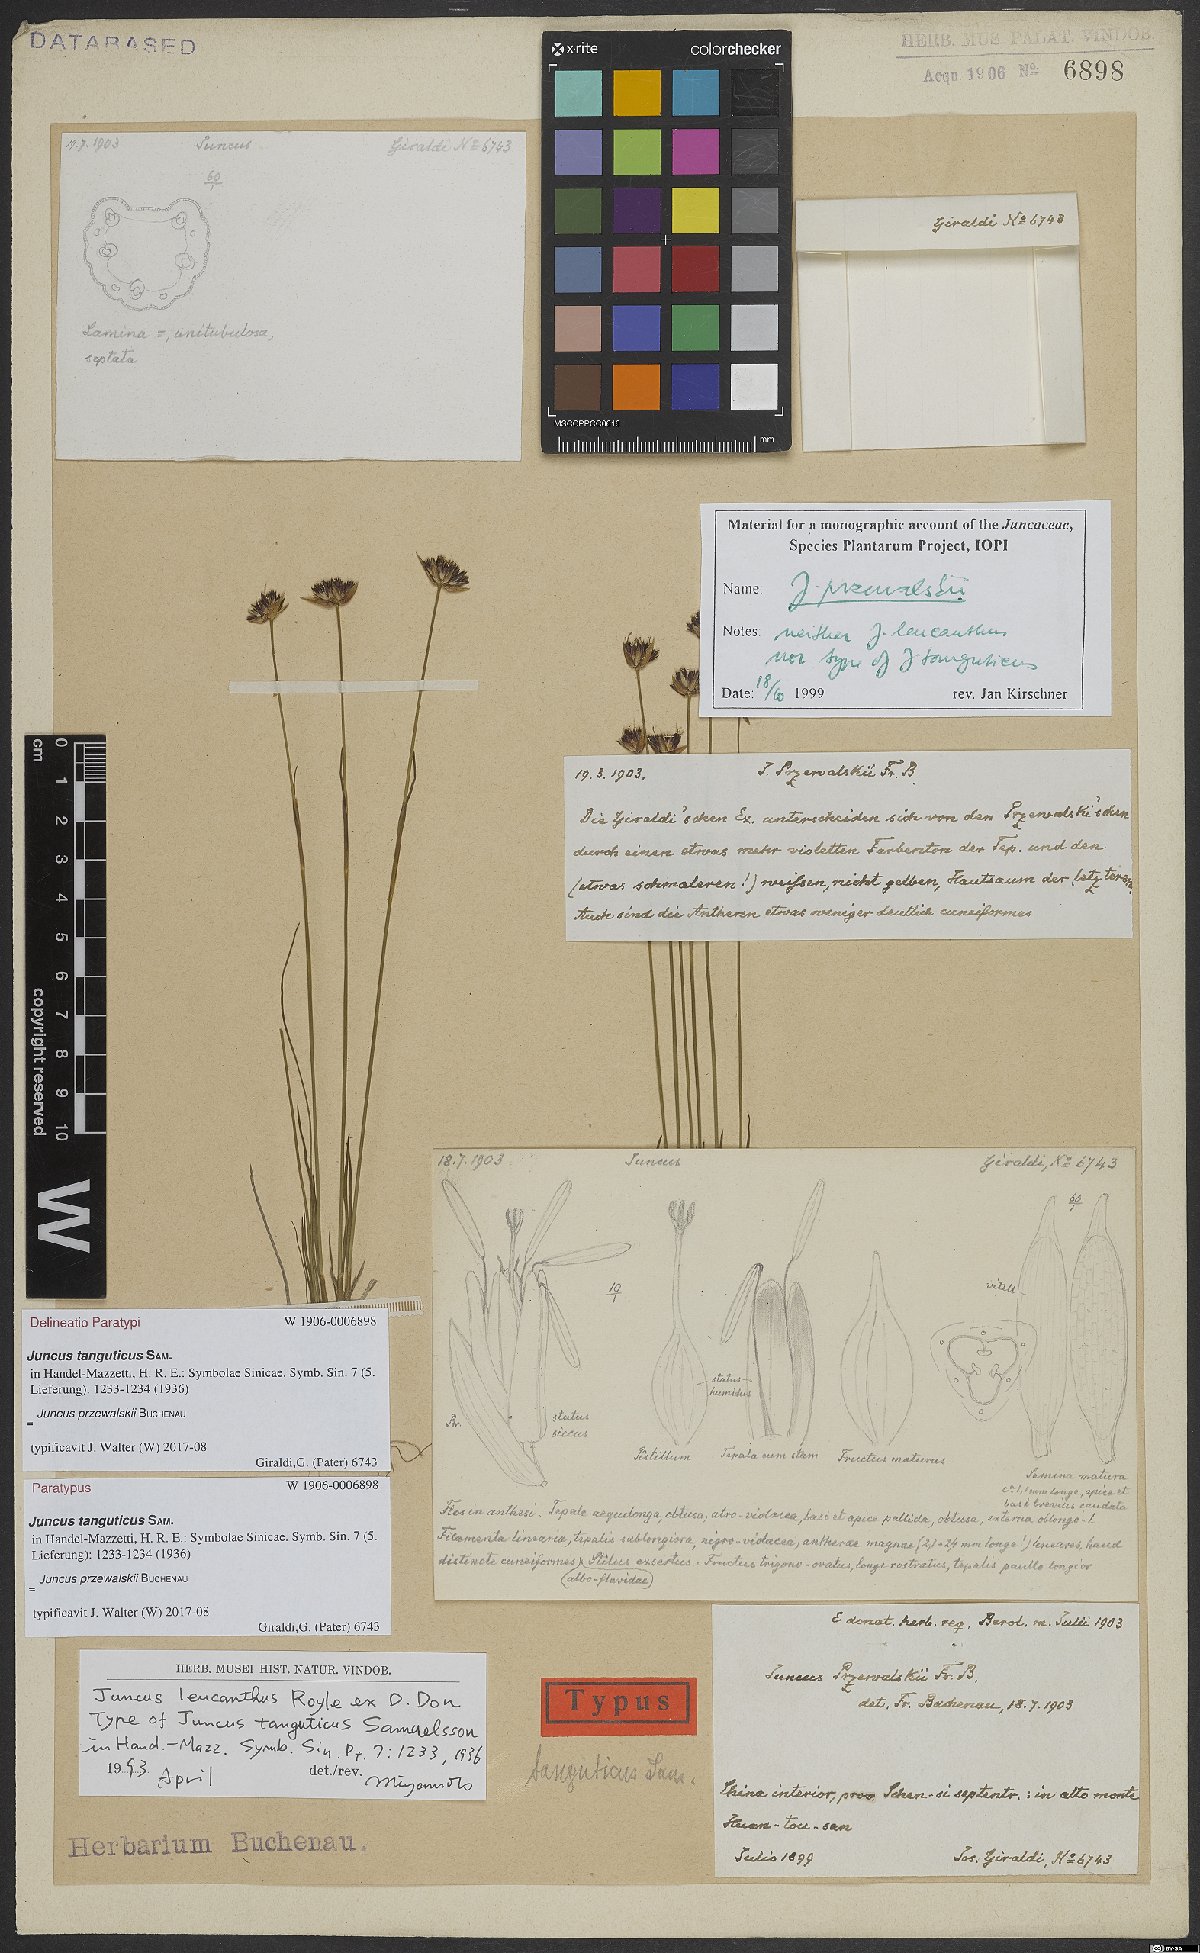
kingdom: Plantae
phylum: Tracheophyta
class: Liliopsida
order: Poales
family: Juncaceae
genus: Juncus
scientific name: Juncus przewalskii
